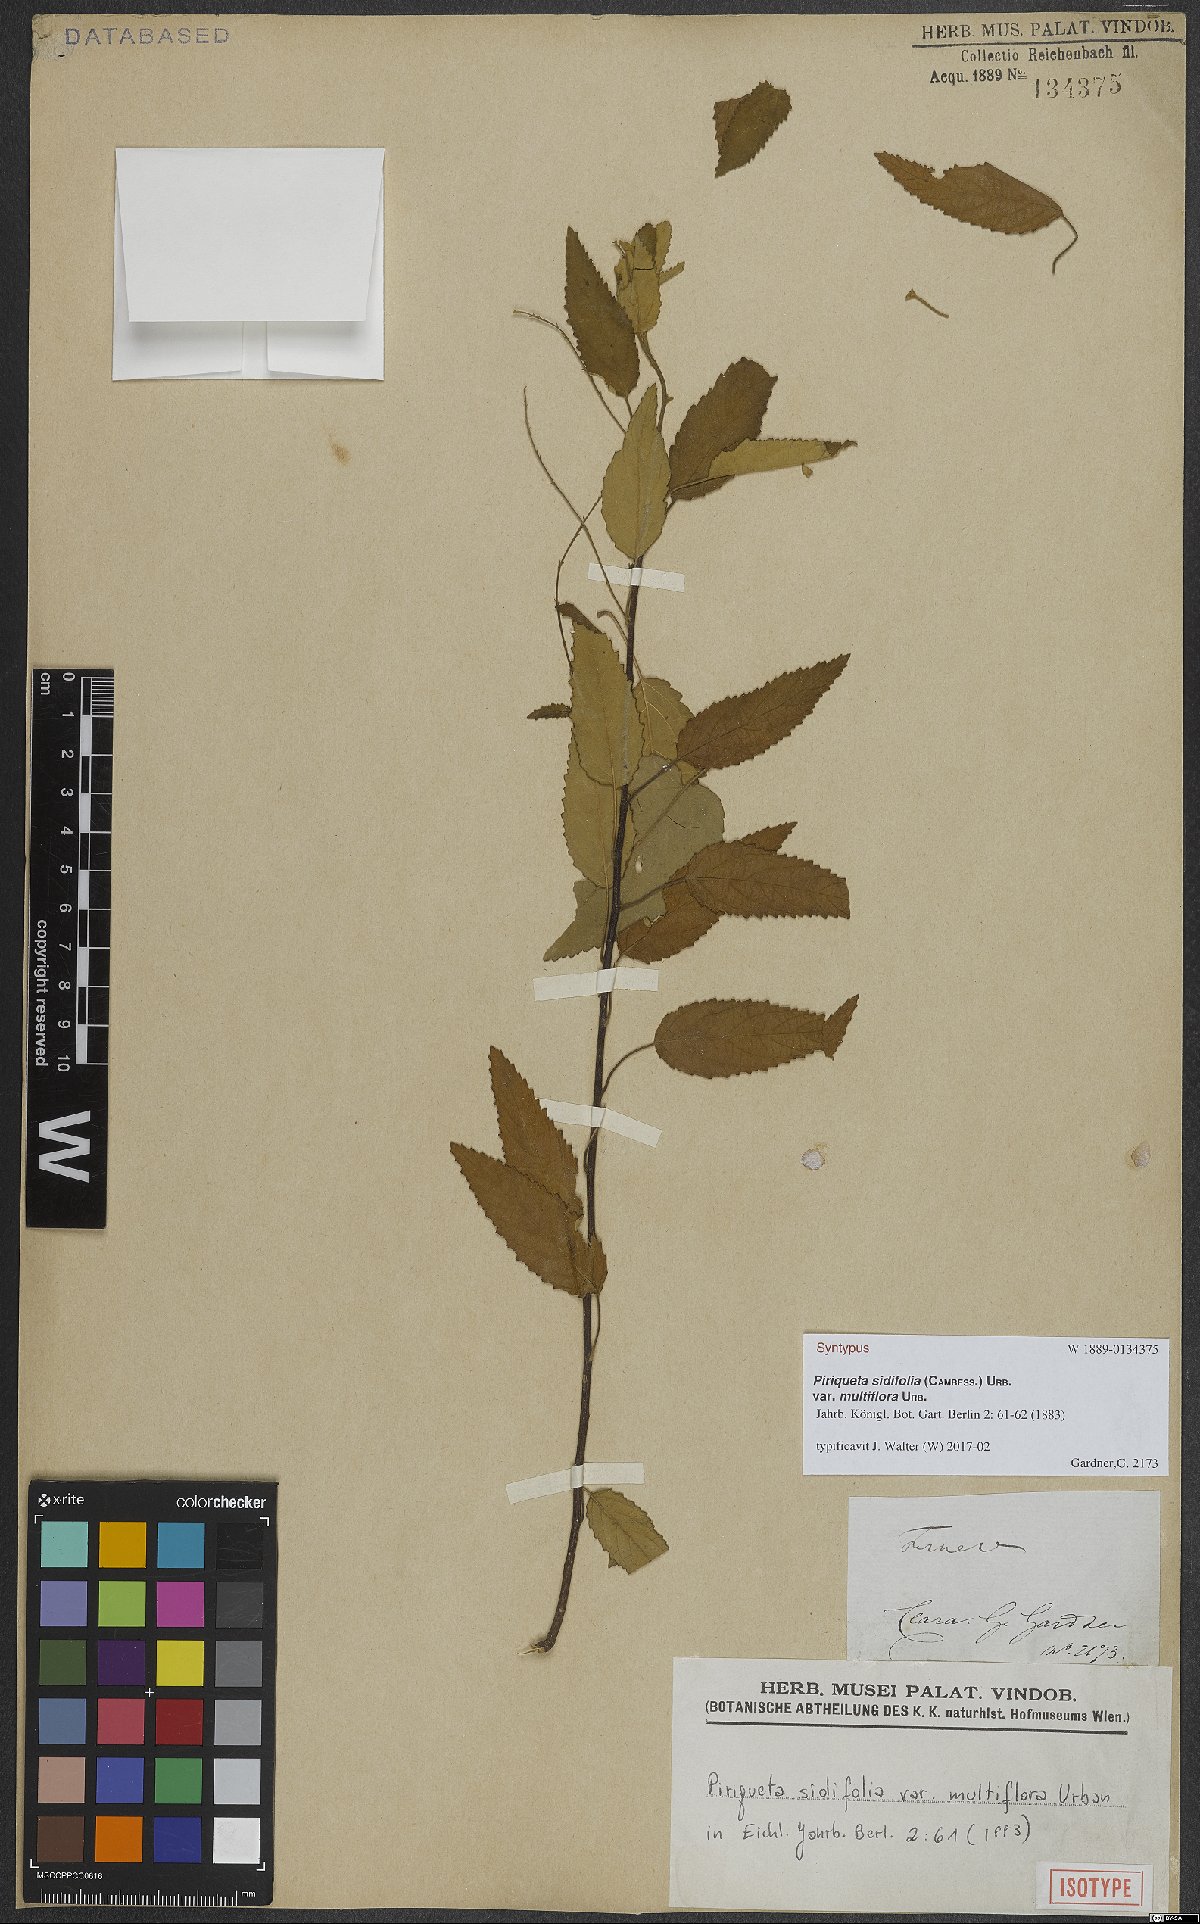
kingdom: Plantae
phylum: Tracheophyta
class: Magnoliopsida
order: Malpighiales
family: Turneraceae
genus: Piriqueta
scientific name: Piriqueta sidifolia
